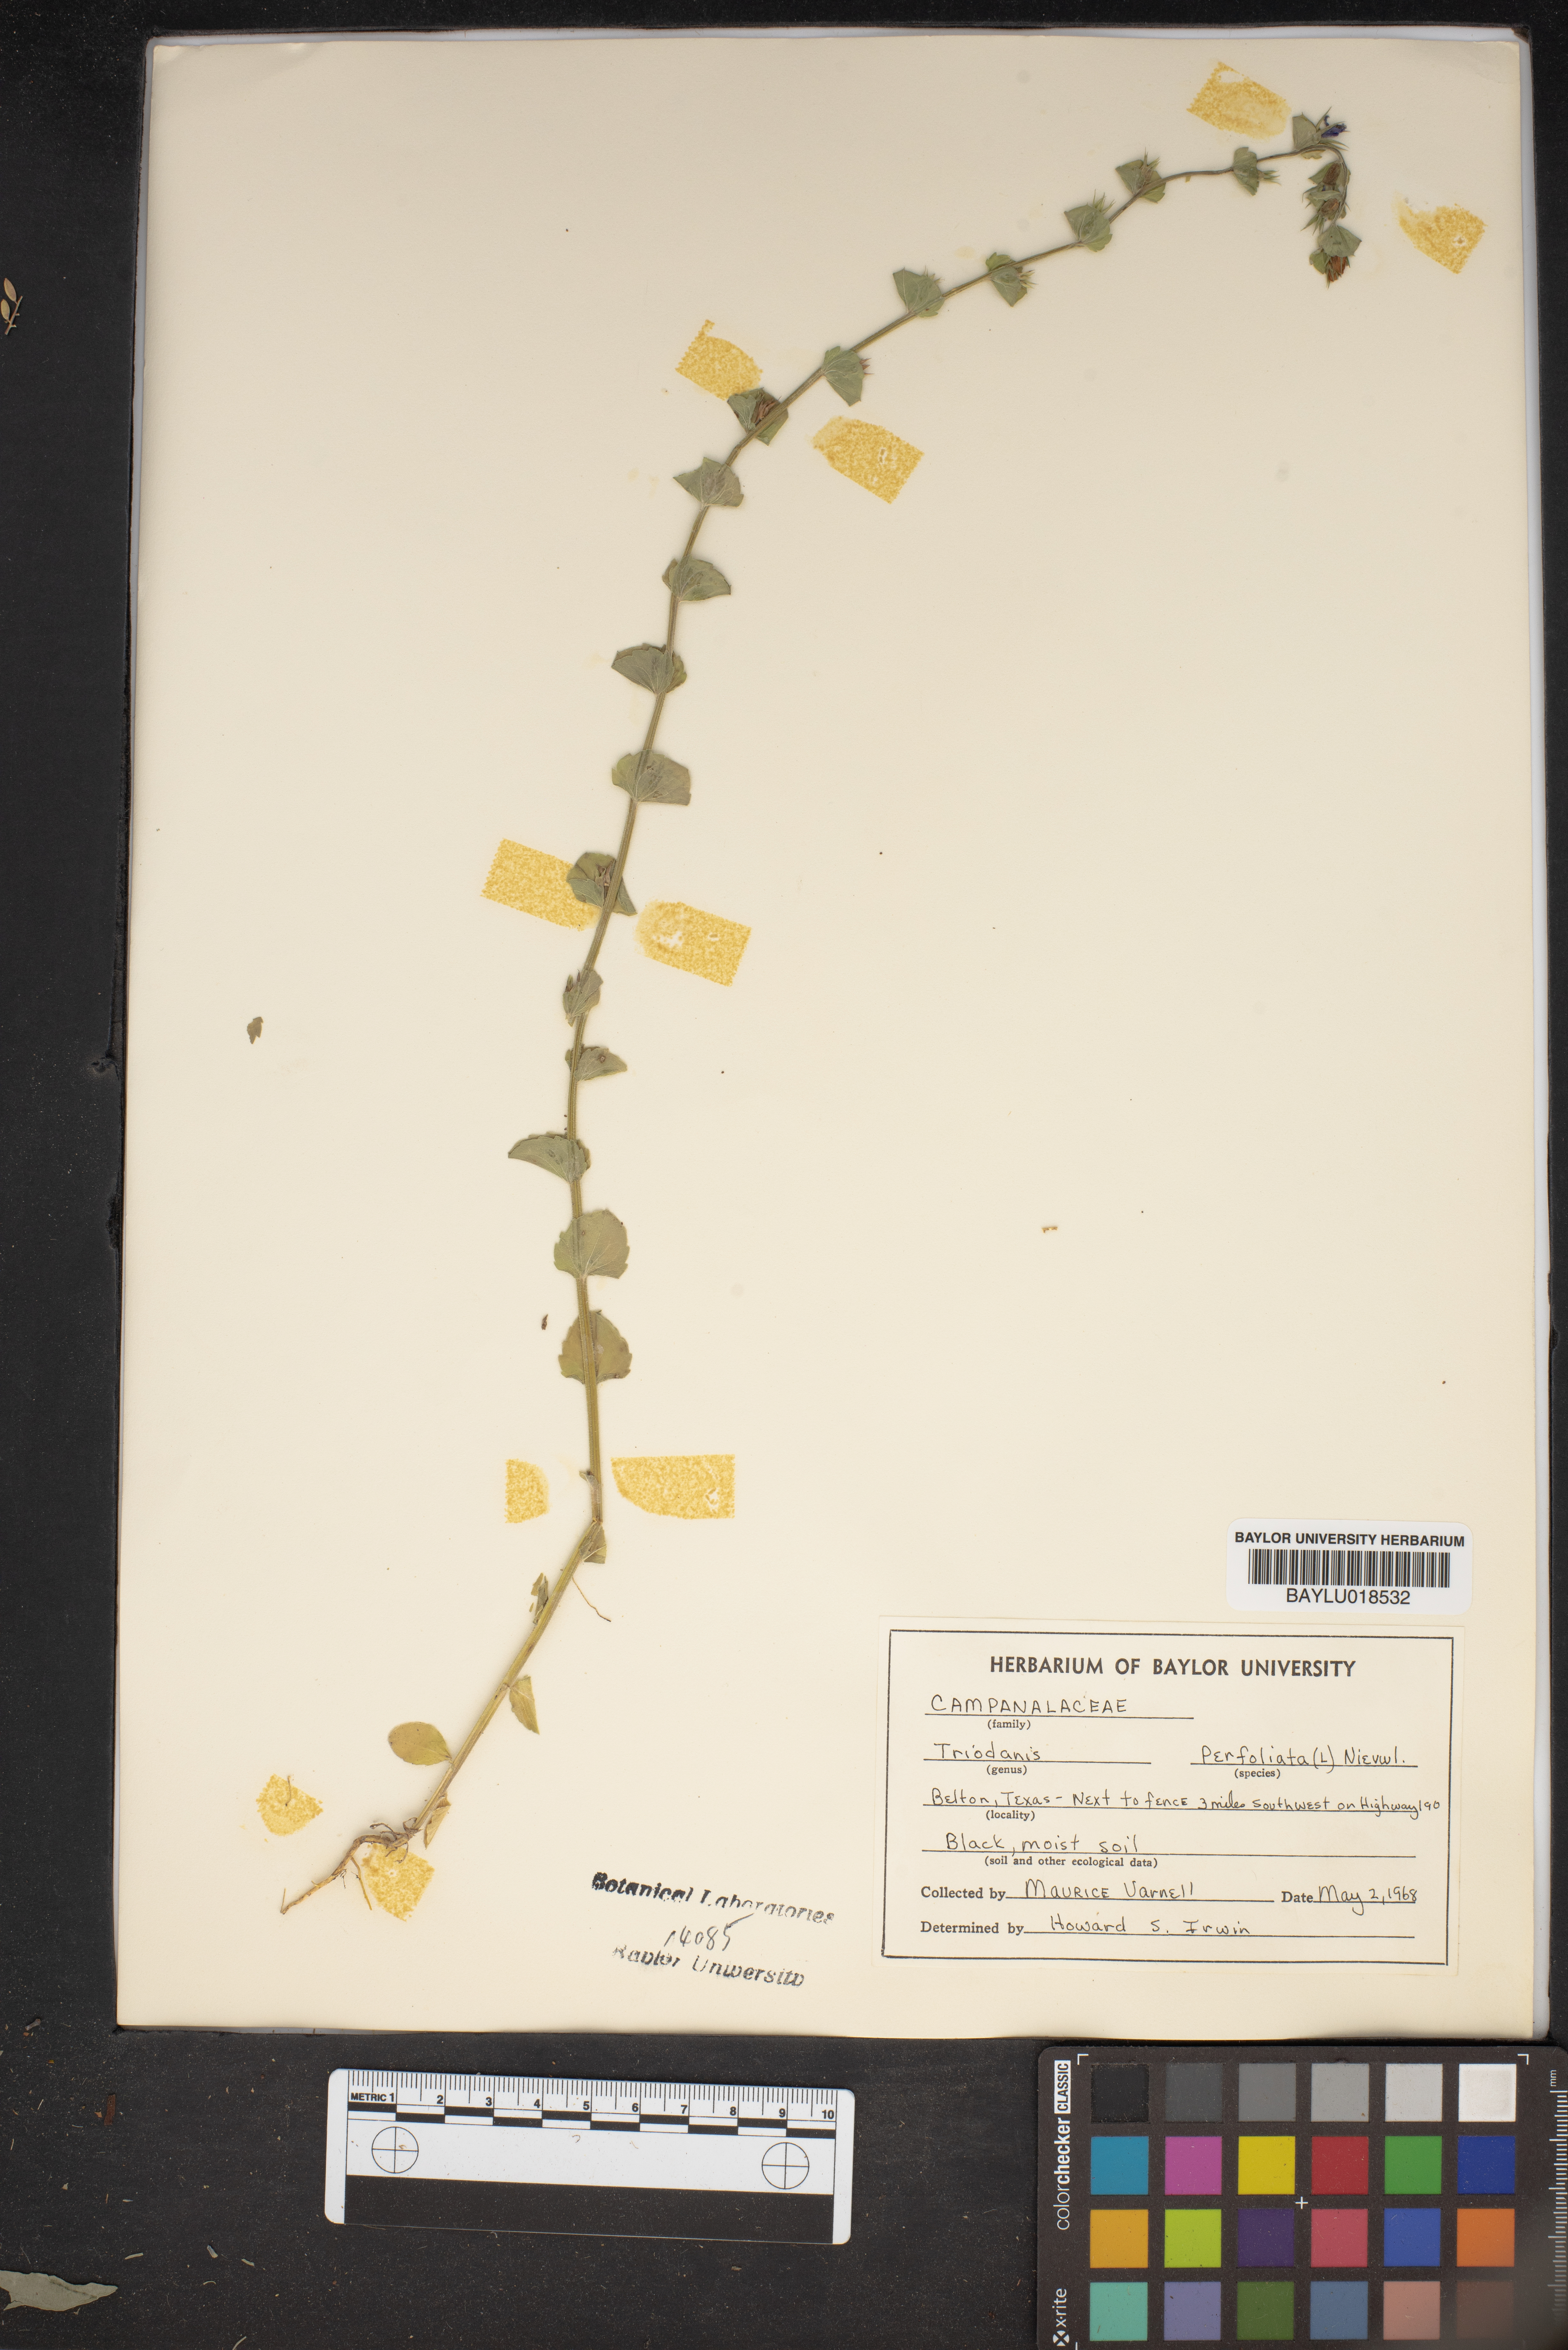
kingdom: Plantae
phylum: Tracheophyta
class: Magnoliopsida
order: Asterales
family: Campanulaceae
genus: Triodanis
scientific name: Triodanis perfoliata
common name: Clasping venus' looking-glass
